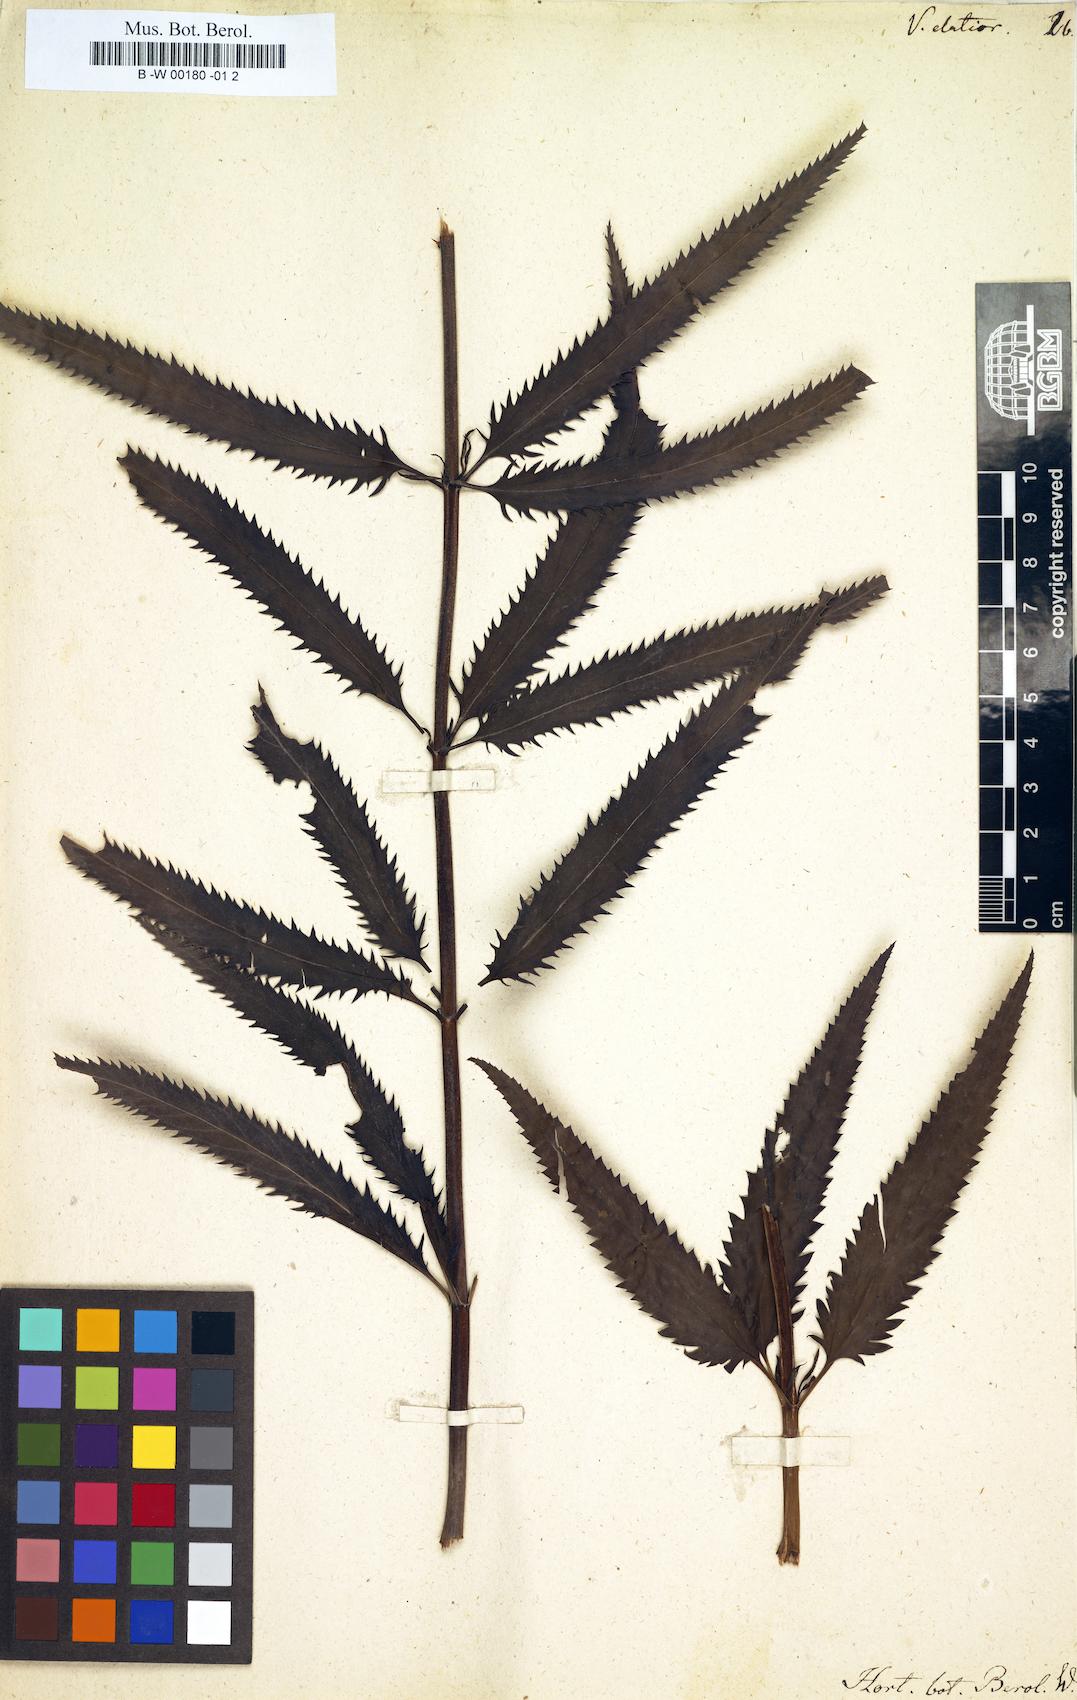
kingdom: Plantae
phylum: Tracheophyta
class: Magnoliopsida
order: Lamiales
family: Plantaginaceae
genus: Veronica
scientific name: Veronica maritima
